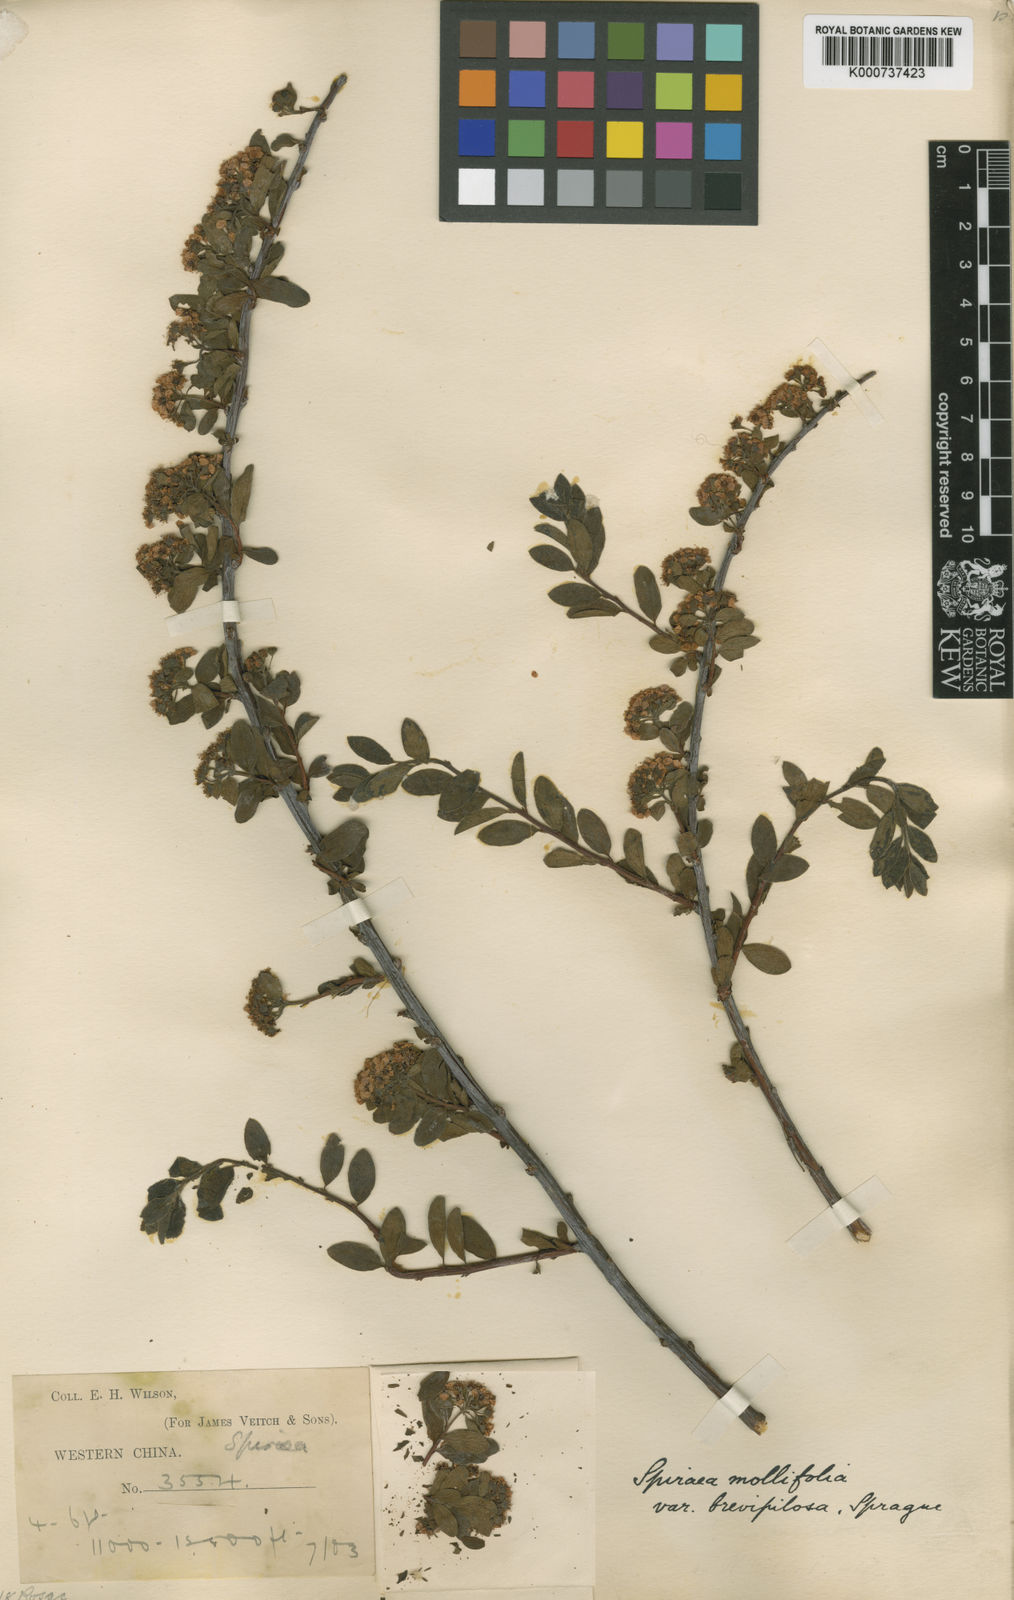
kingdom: Plantae
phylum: Tracheophyta
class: Magnoliopsida
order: Rosales
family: Rosaceae
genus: Spiraea
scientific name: Spiraea mollifolia
